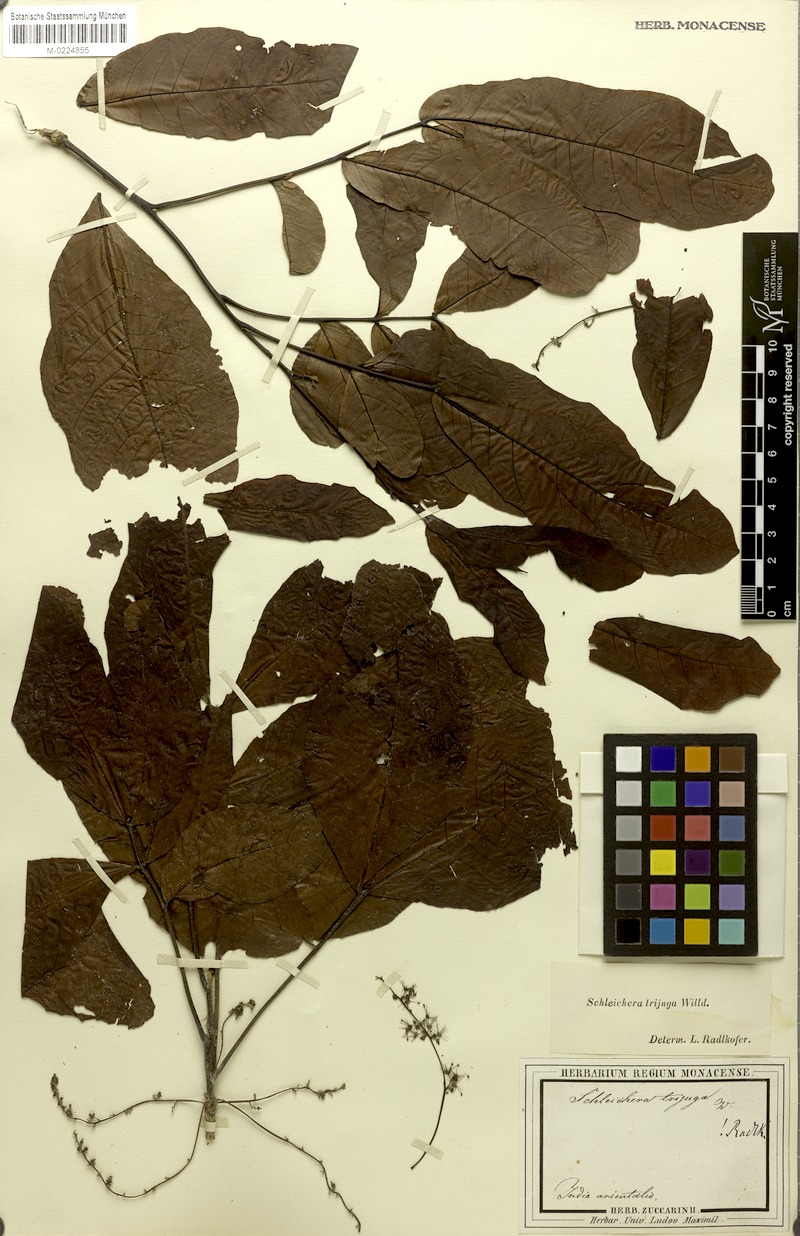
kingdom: Plantae
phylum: Tracheophyta
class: Magnoliopsida
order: Sapindales
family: Sapindaceae
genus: Schleichera
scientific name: Schleichera oleosa
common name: Malay lactree
